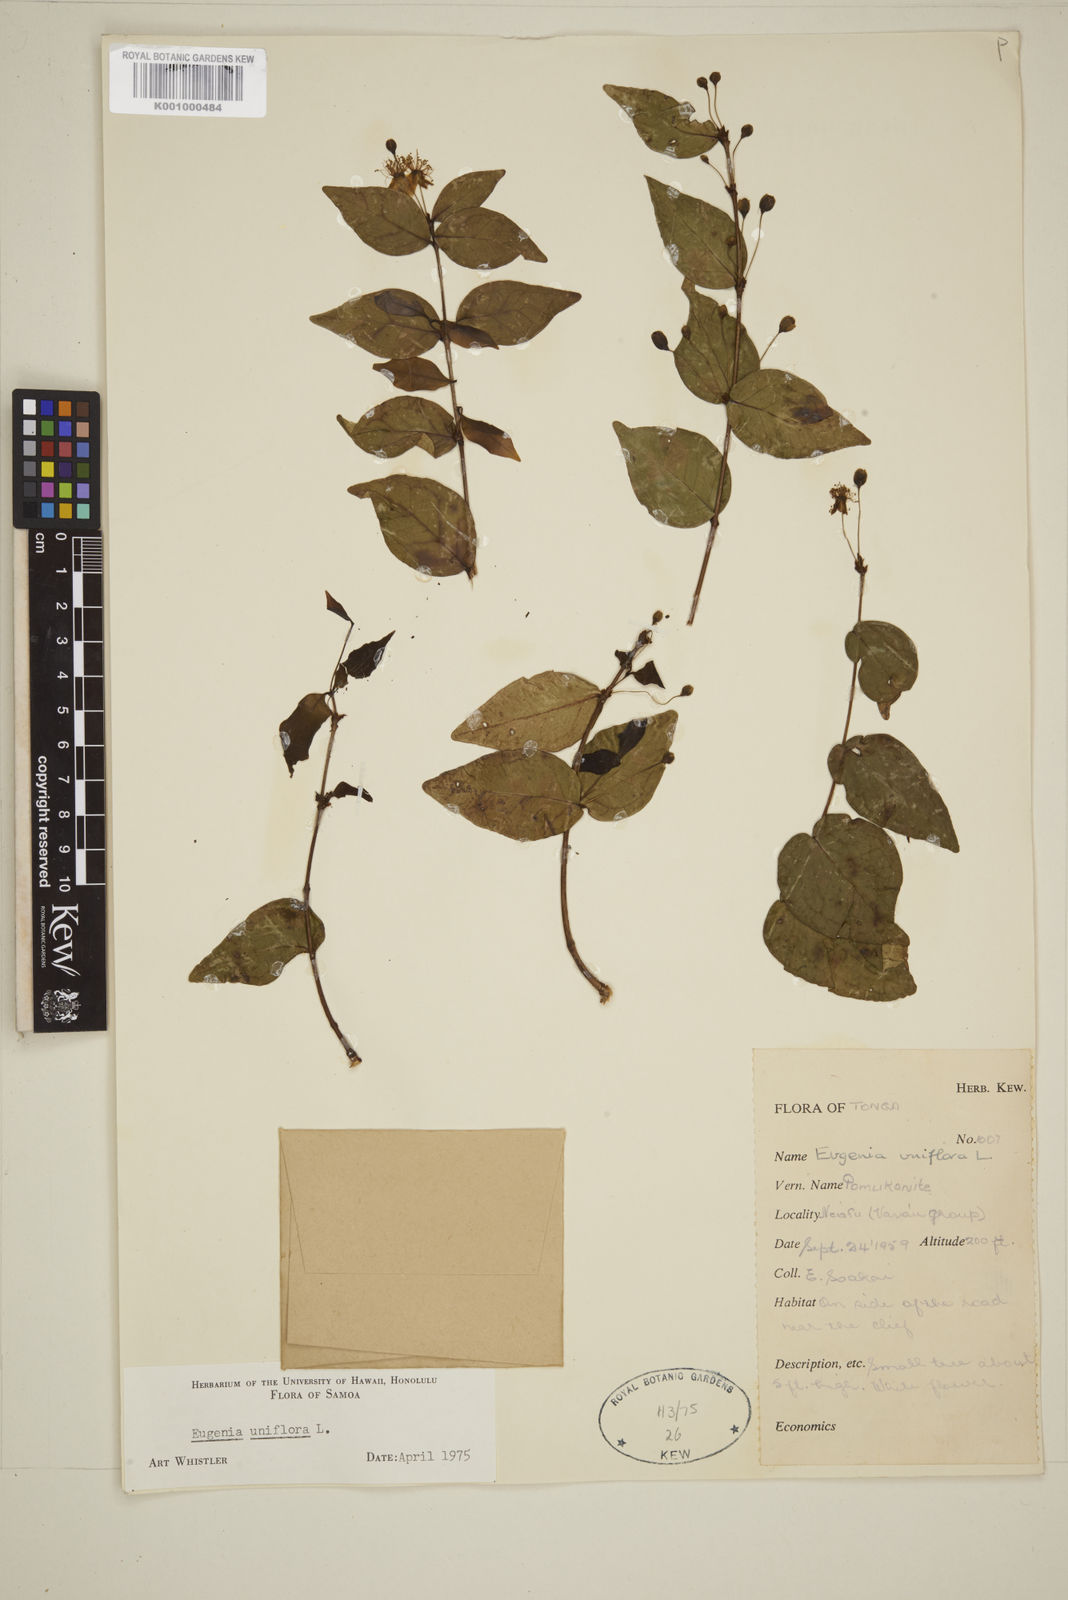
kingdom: Plantae
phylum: Tracheophyta
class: Magnoliopsida
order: Myrtales
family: Myrtaceae
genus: Eugenia
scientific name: Eugenia uniflora
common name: Surinam cherry
